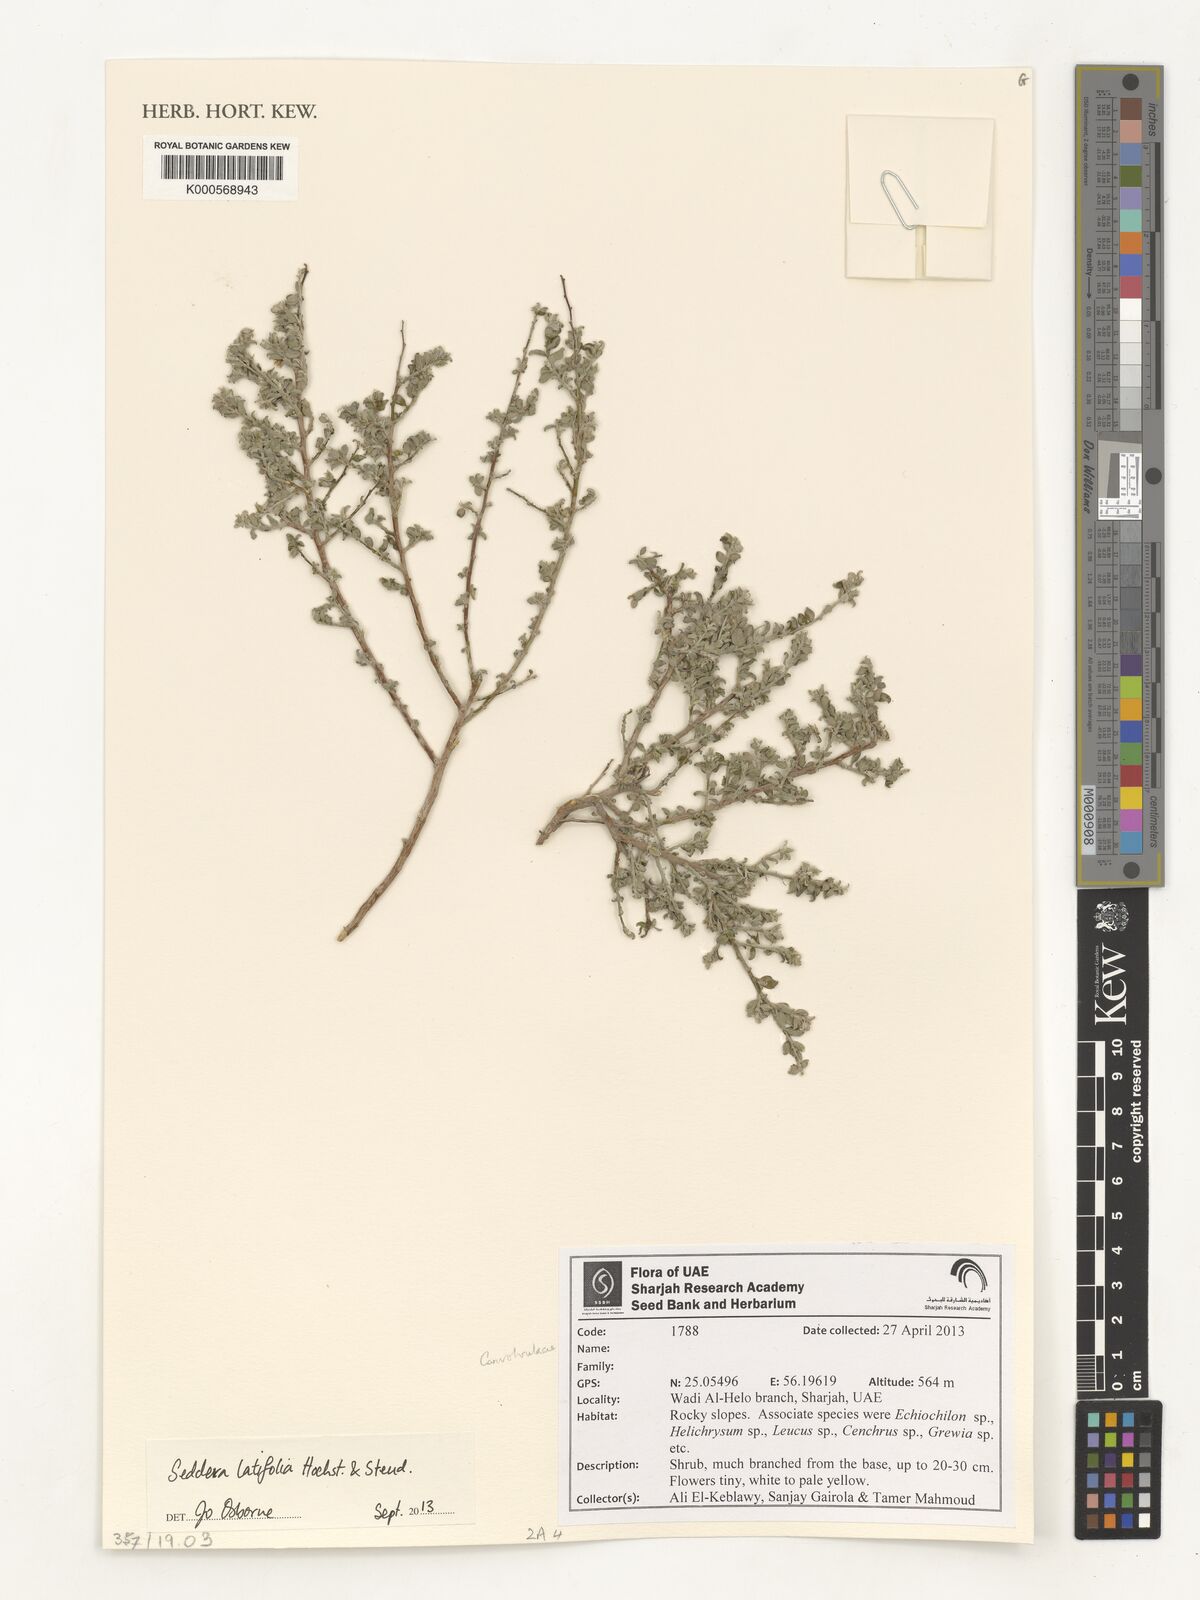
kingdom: Plantae
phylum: Tracheophyta
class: Magnoliopsida
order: Solanales
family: Convolvulaceae
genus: Seddera
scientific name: Seddera latifolia
